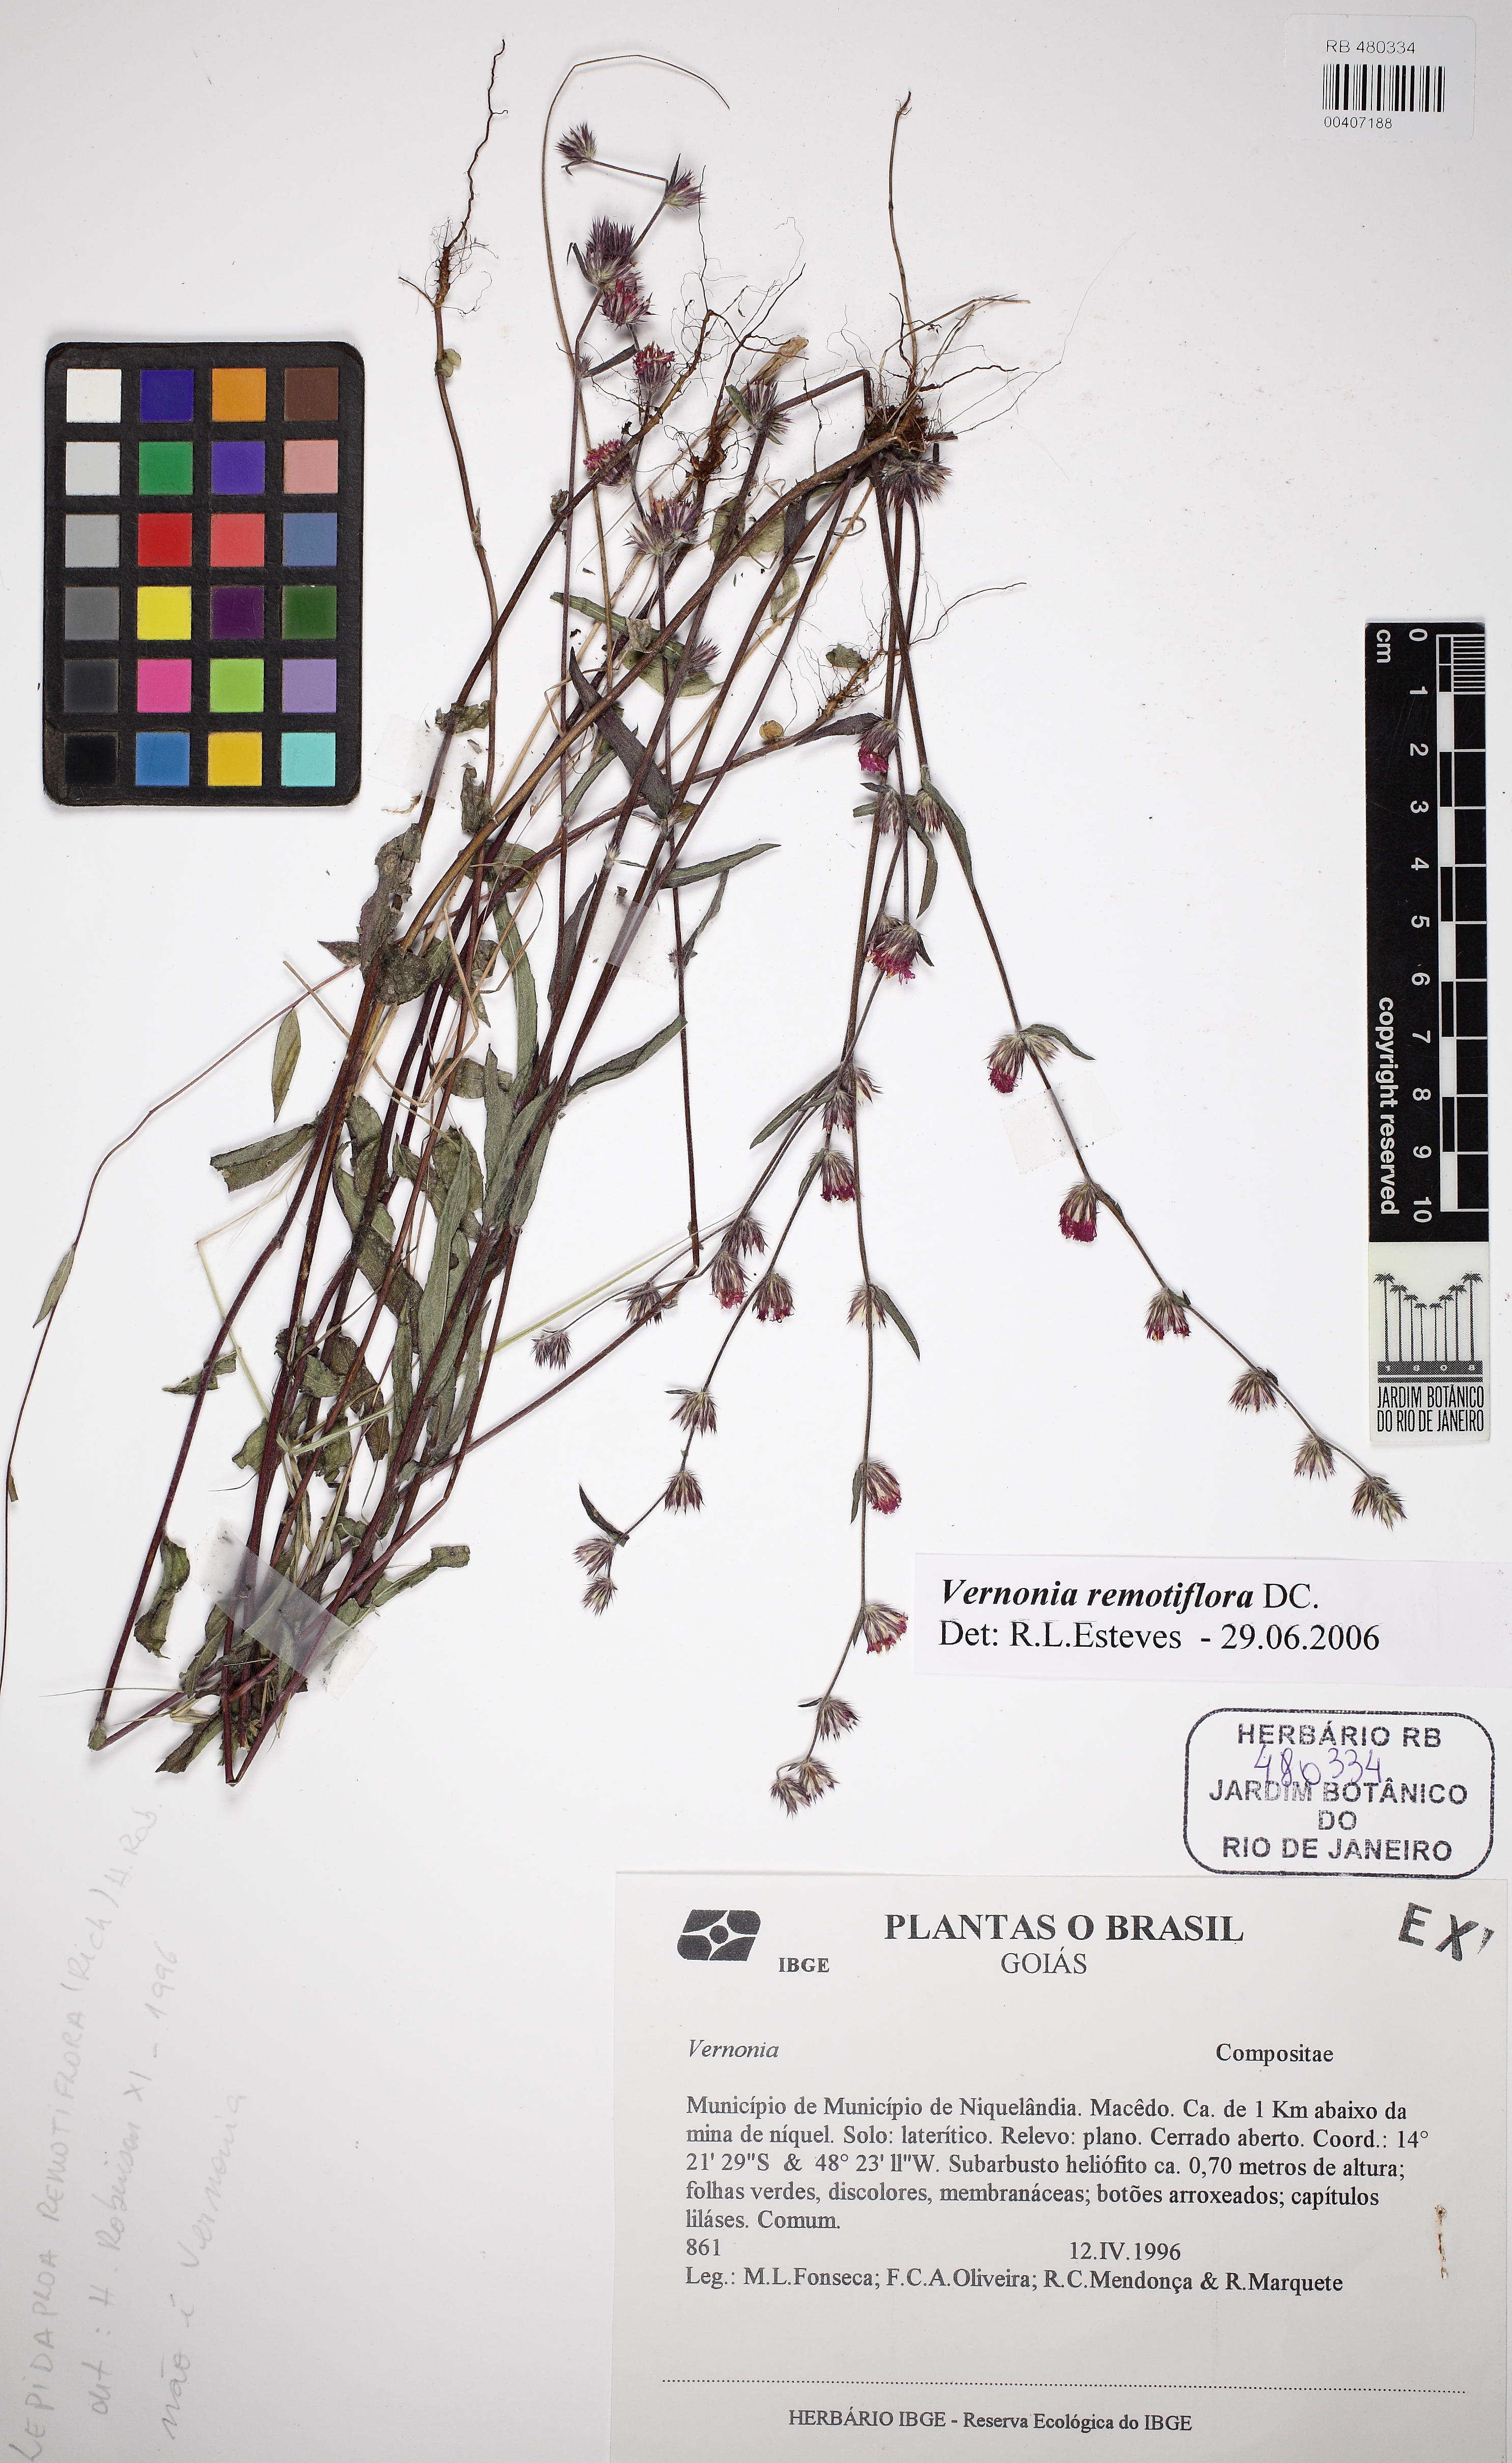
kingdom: Plantae
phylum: Tracheophyta
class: Magnoliopsida
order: Asterales
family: Asteraceae
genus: Lepidaploa
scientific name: Lepidaploa remotiflora
